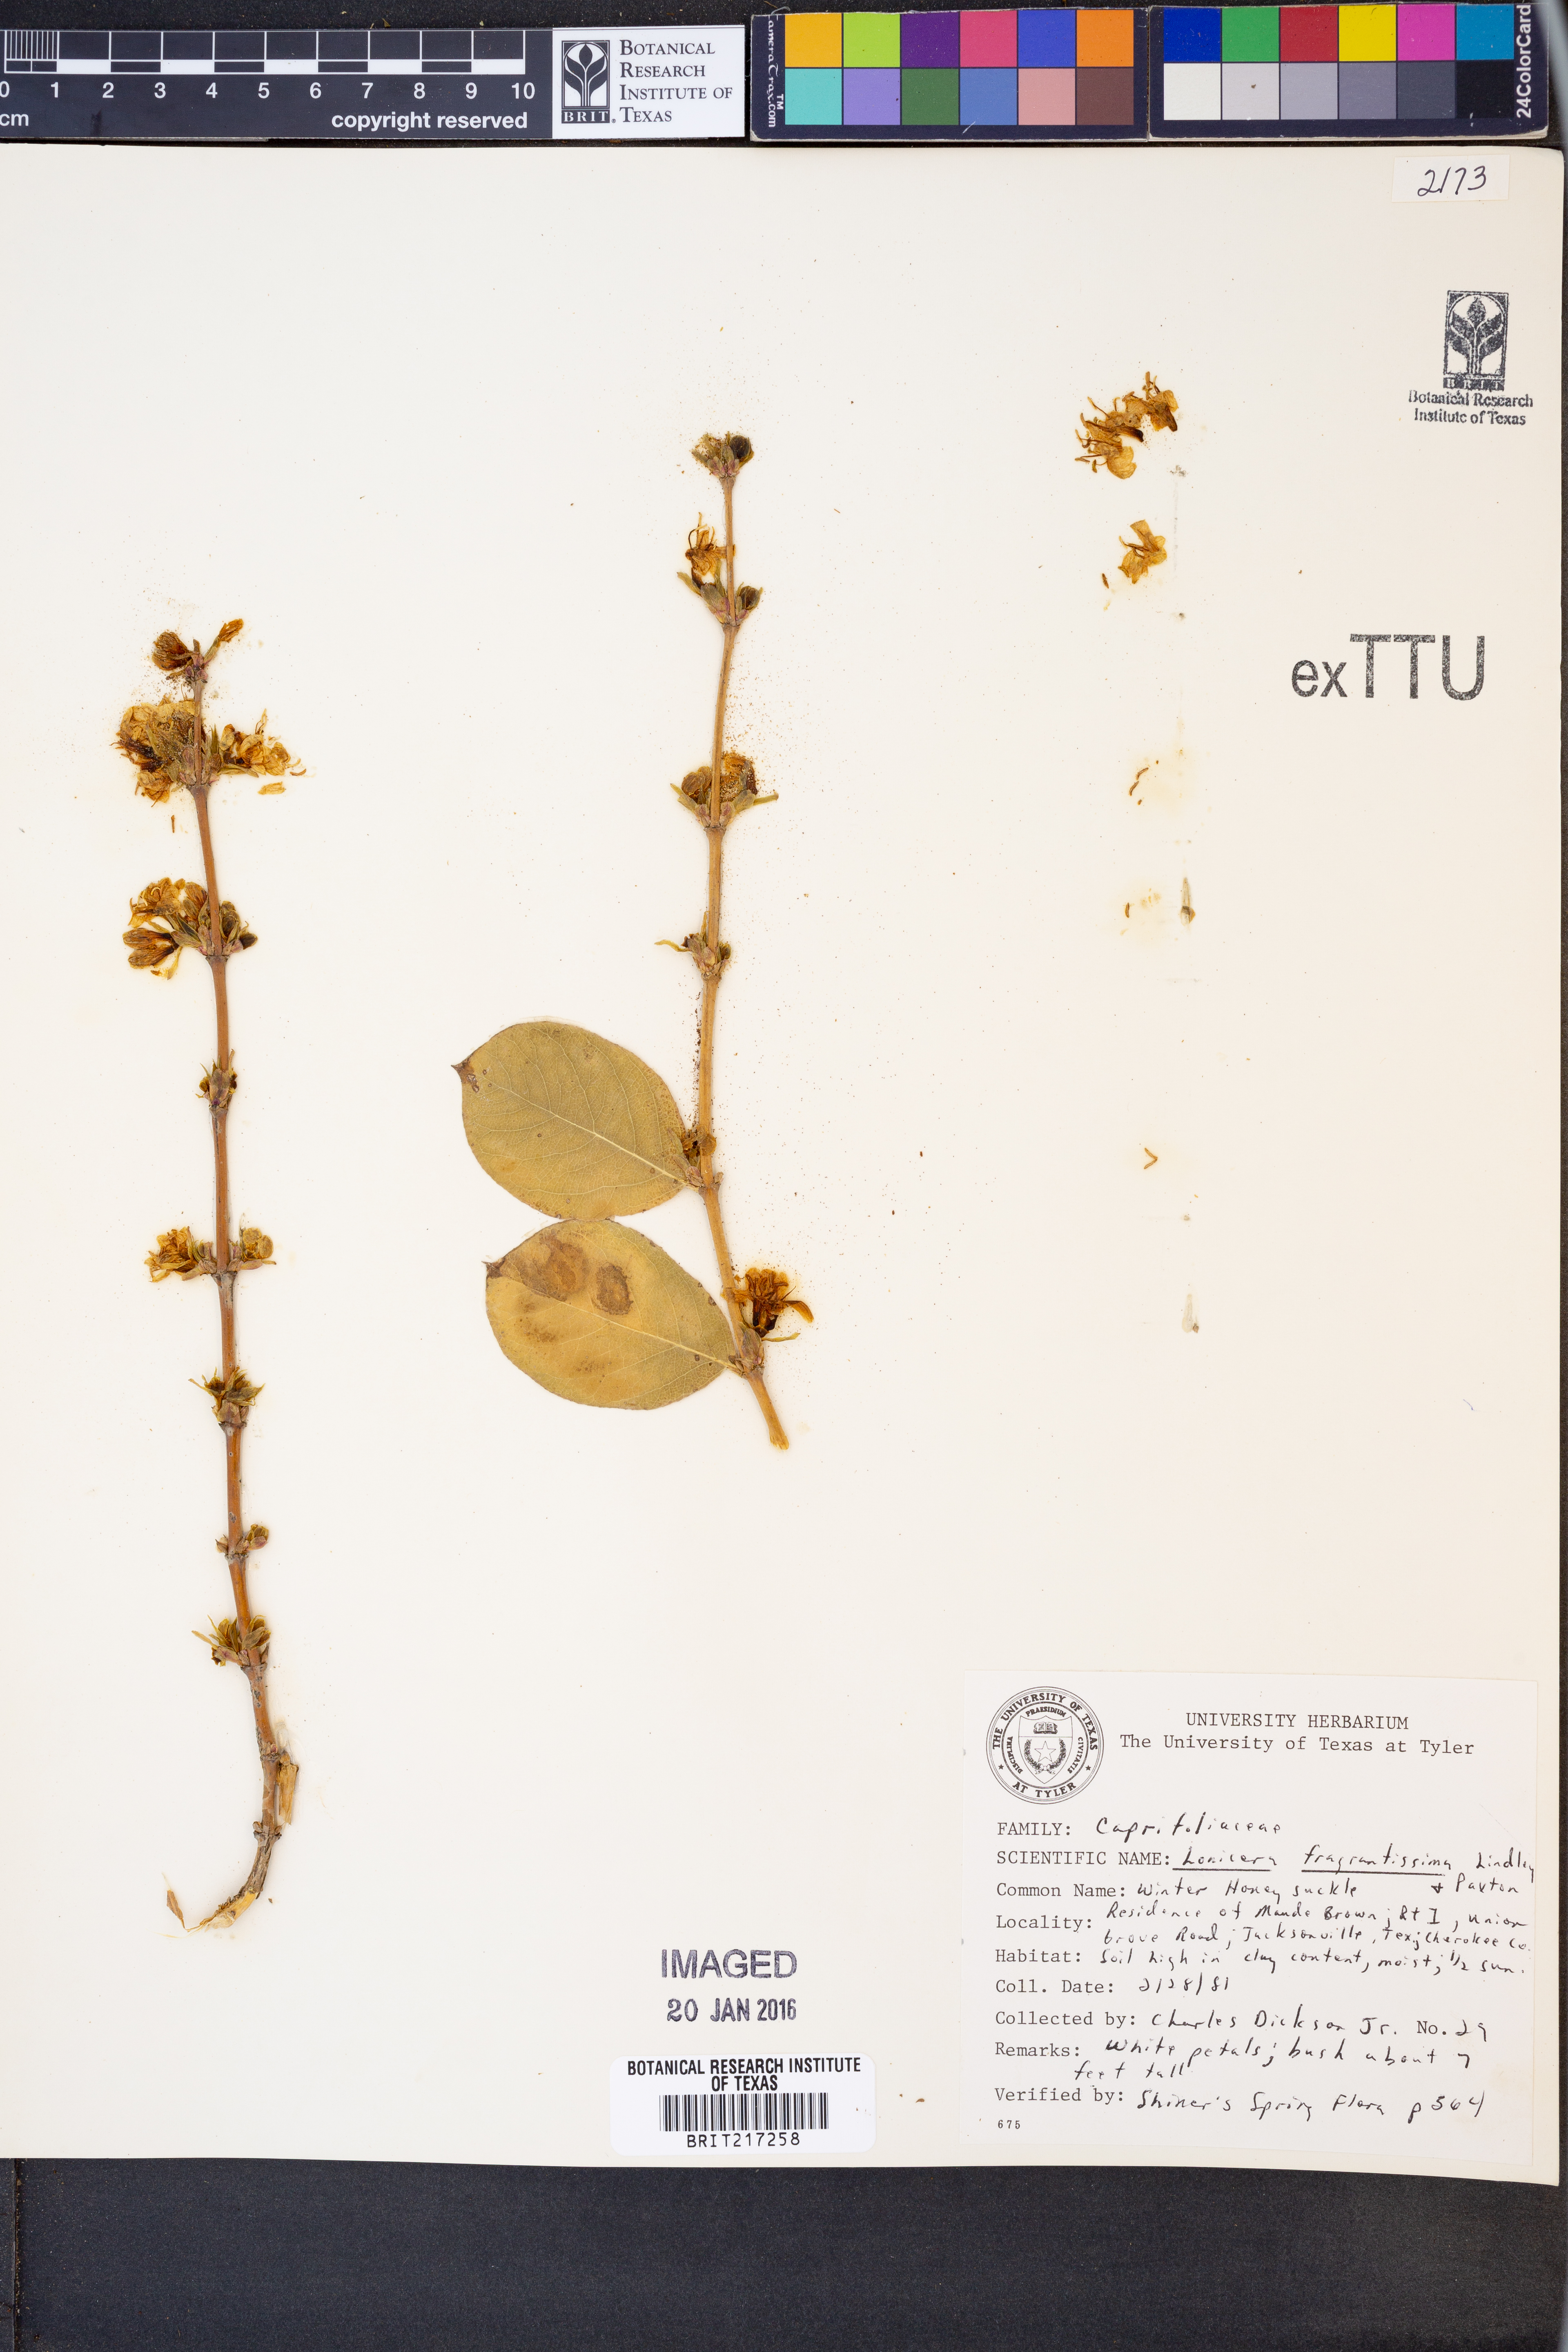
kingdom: Plantae
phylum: Tracheophyta
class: Magnoliopsida
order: Dipsacales
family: Caprifoliaceae
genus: Lonicera
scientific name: Lonicera fragrantissima
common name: Fragrant honeysuckle
